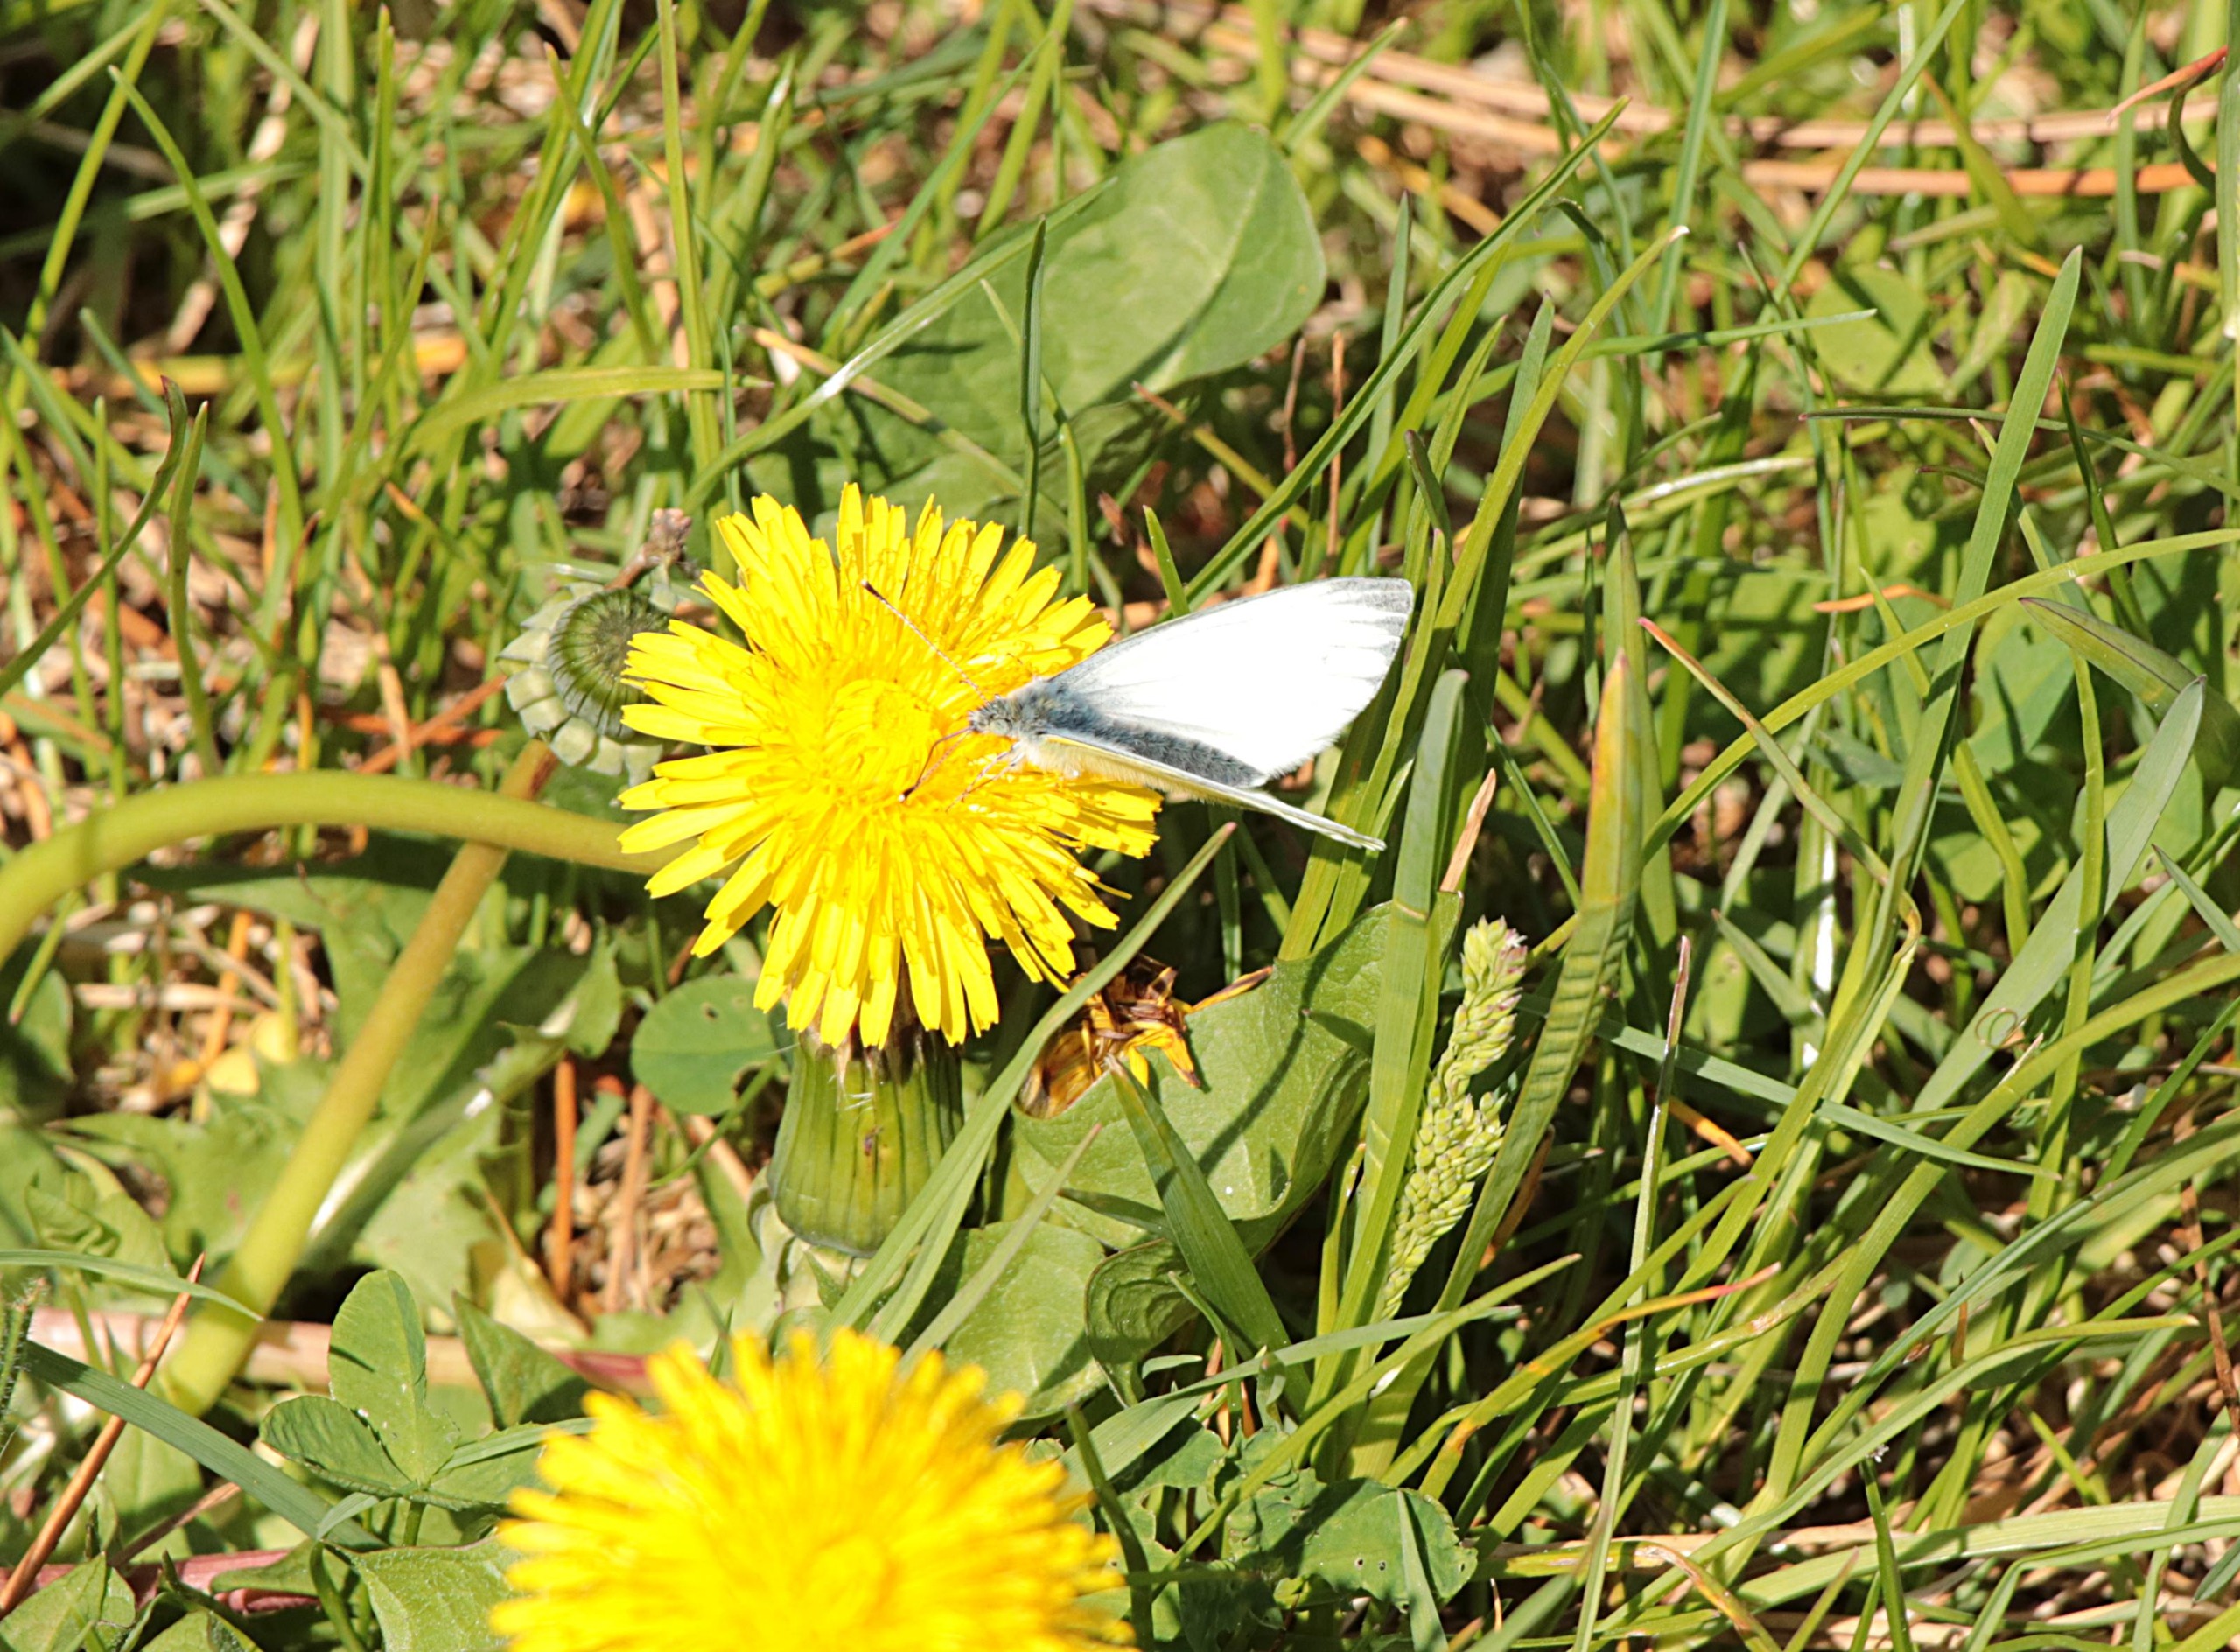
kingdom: Animalia
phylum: Arthropoda
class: Insecta
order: Lepidoptera
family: Pieridae
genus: Pieris
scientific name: Pieris napi
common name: Grønåret kålsommerfugl
